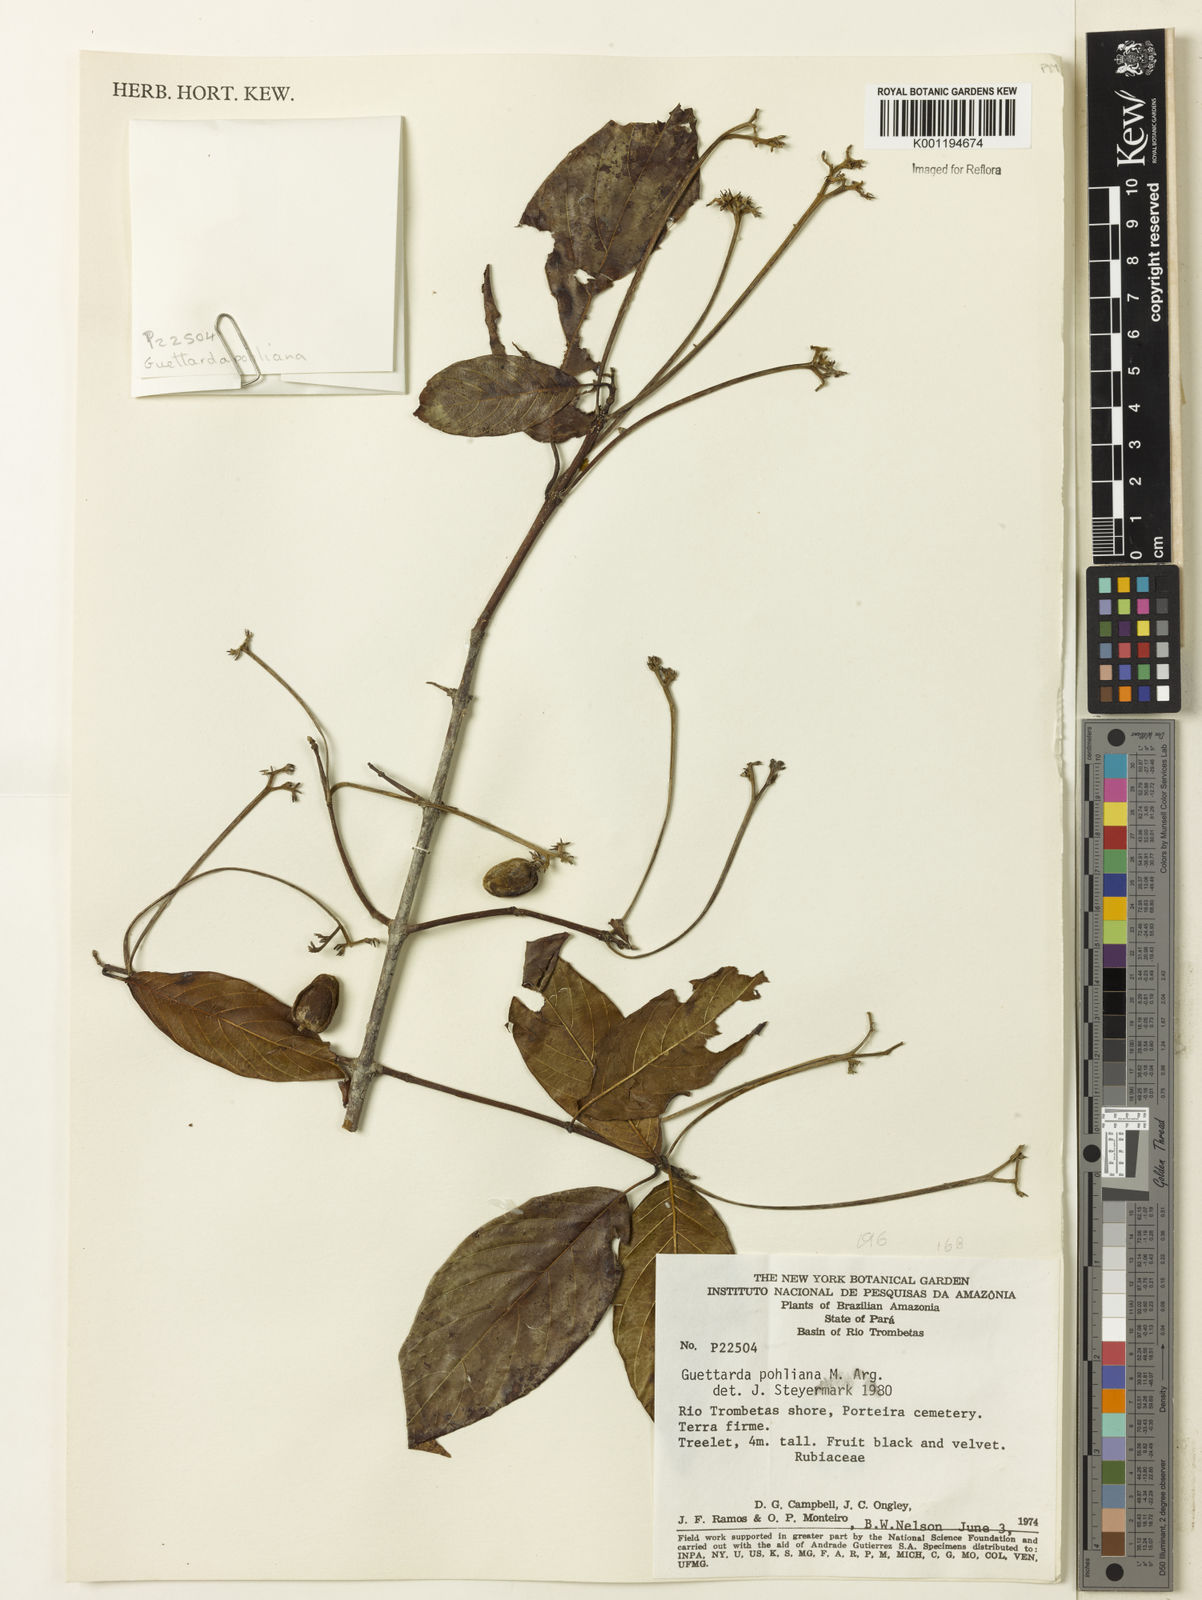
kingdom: Plantae
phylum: Tracheophyta
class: Magnoliopsida
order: Gentianales
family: Rubiaceae
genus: Guettarda
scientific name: Guettarda
